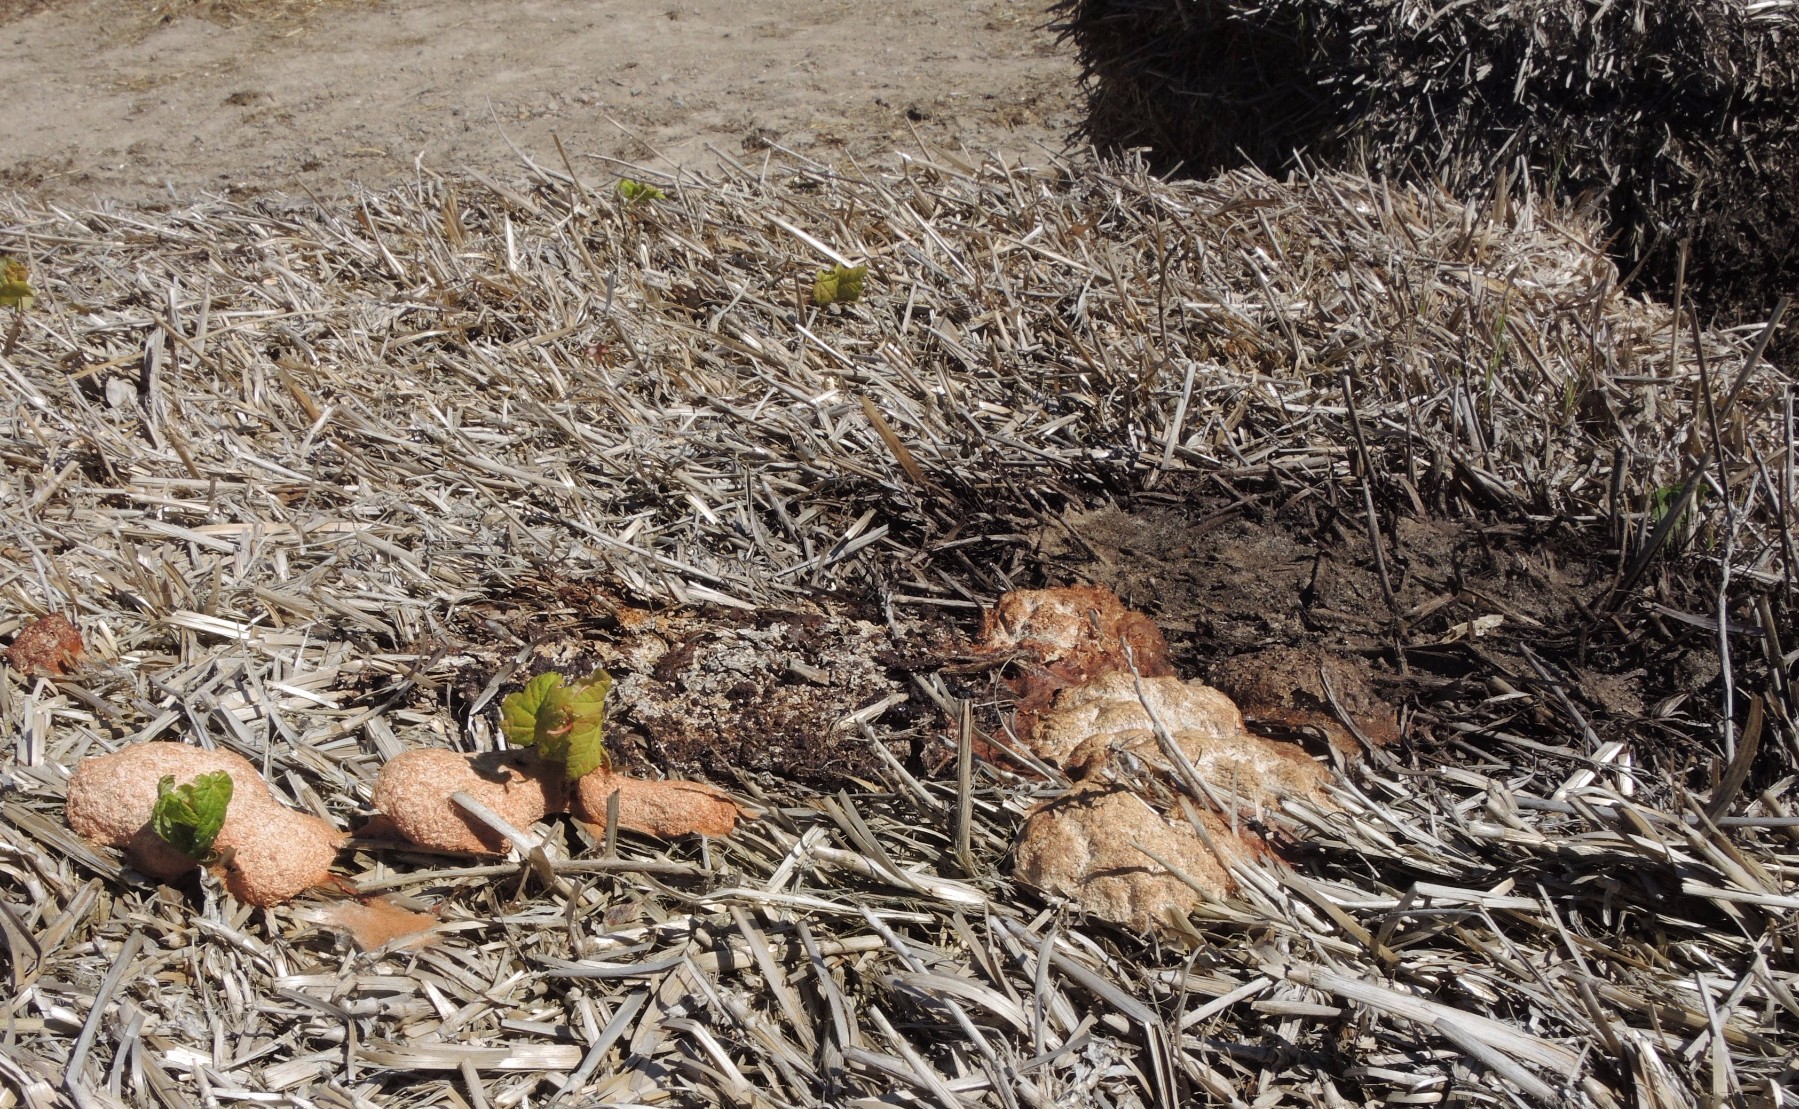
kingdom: Protozoa
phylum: Mycetozoa
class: Myxomycetes
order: Physarales
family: Physaraceae
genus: Fuligo
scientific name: Fuligo septica
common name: Dog vomit slime mold
